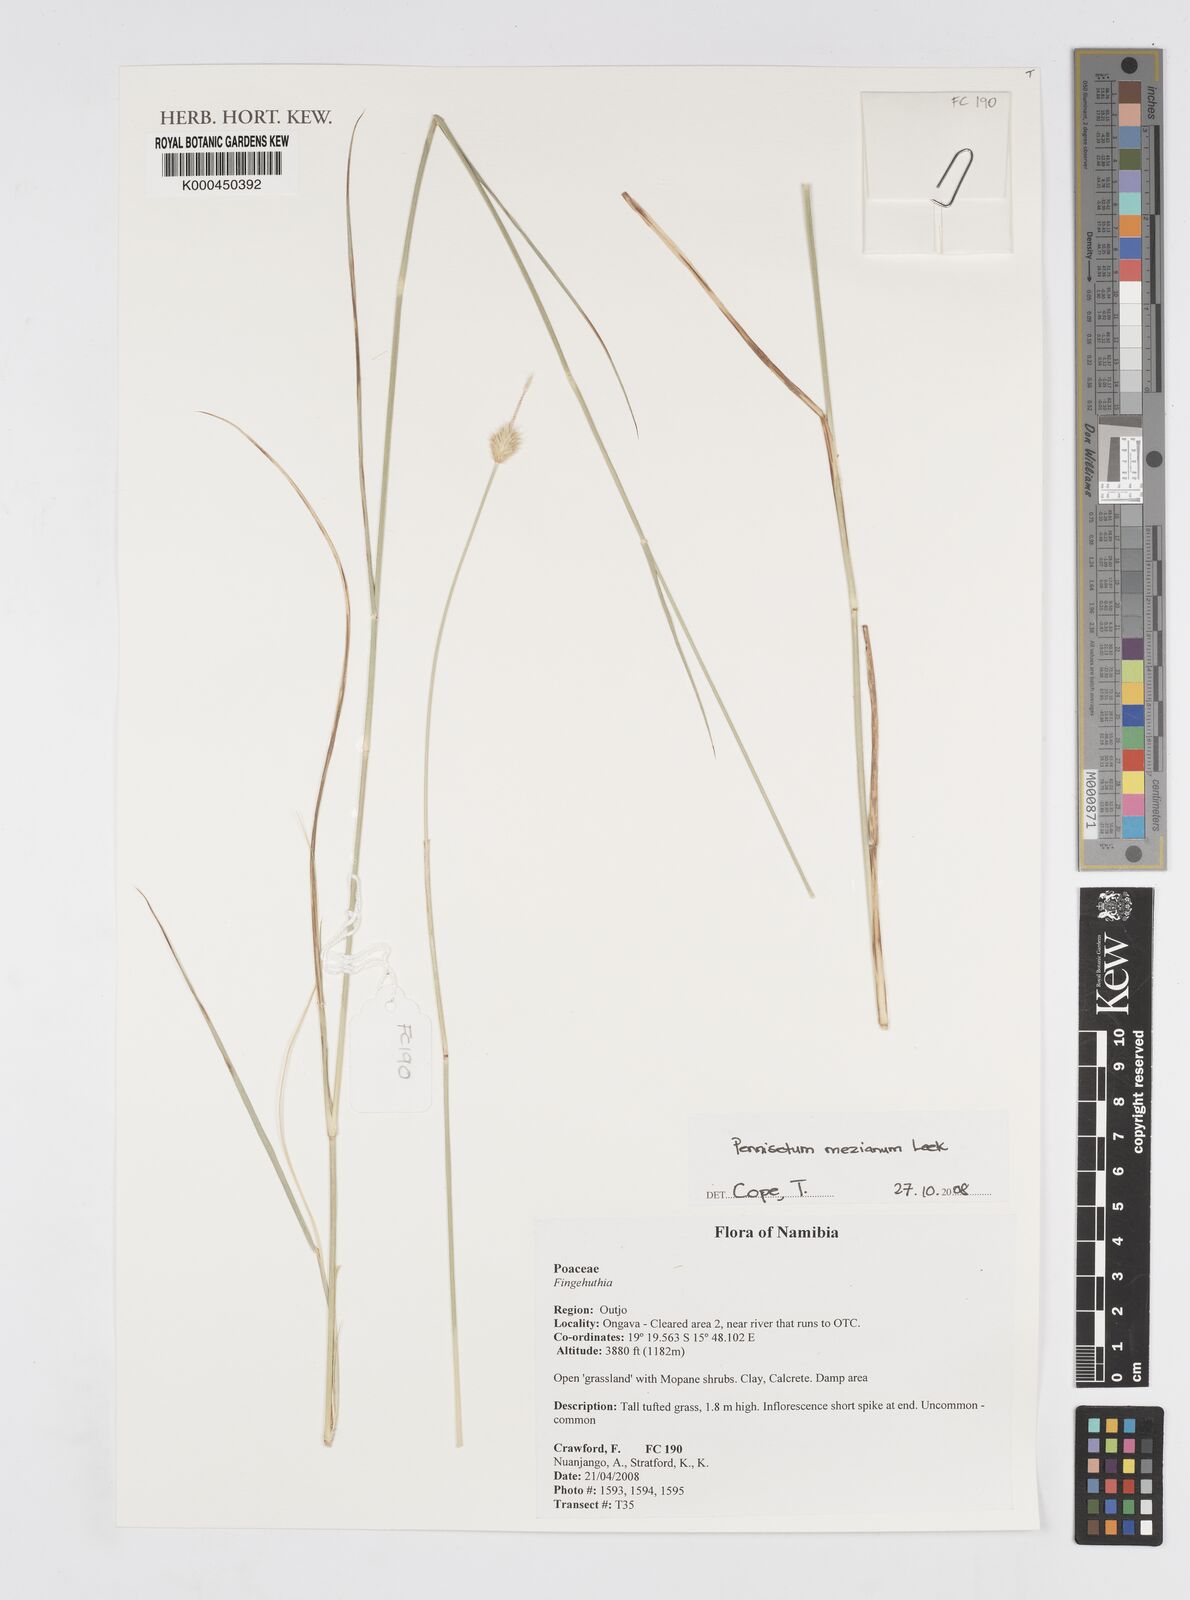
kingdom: Plantae
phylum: Tracheophyta
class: Liliopsida
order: Poales
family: Poaceae
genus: Cenchrus
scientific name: Cenchrus mezianus
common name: Bamboo grass
